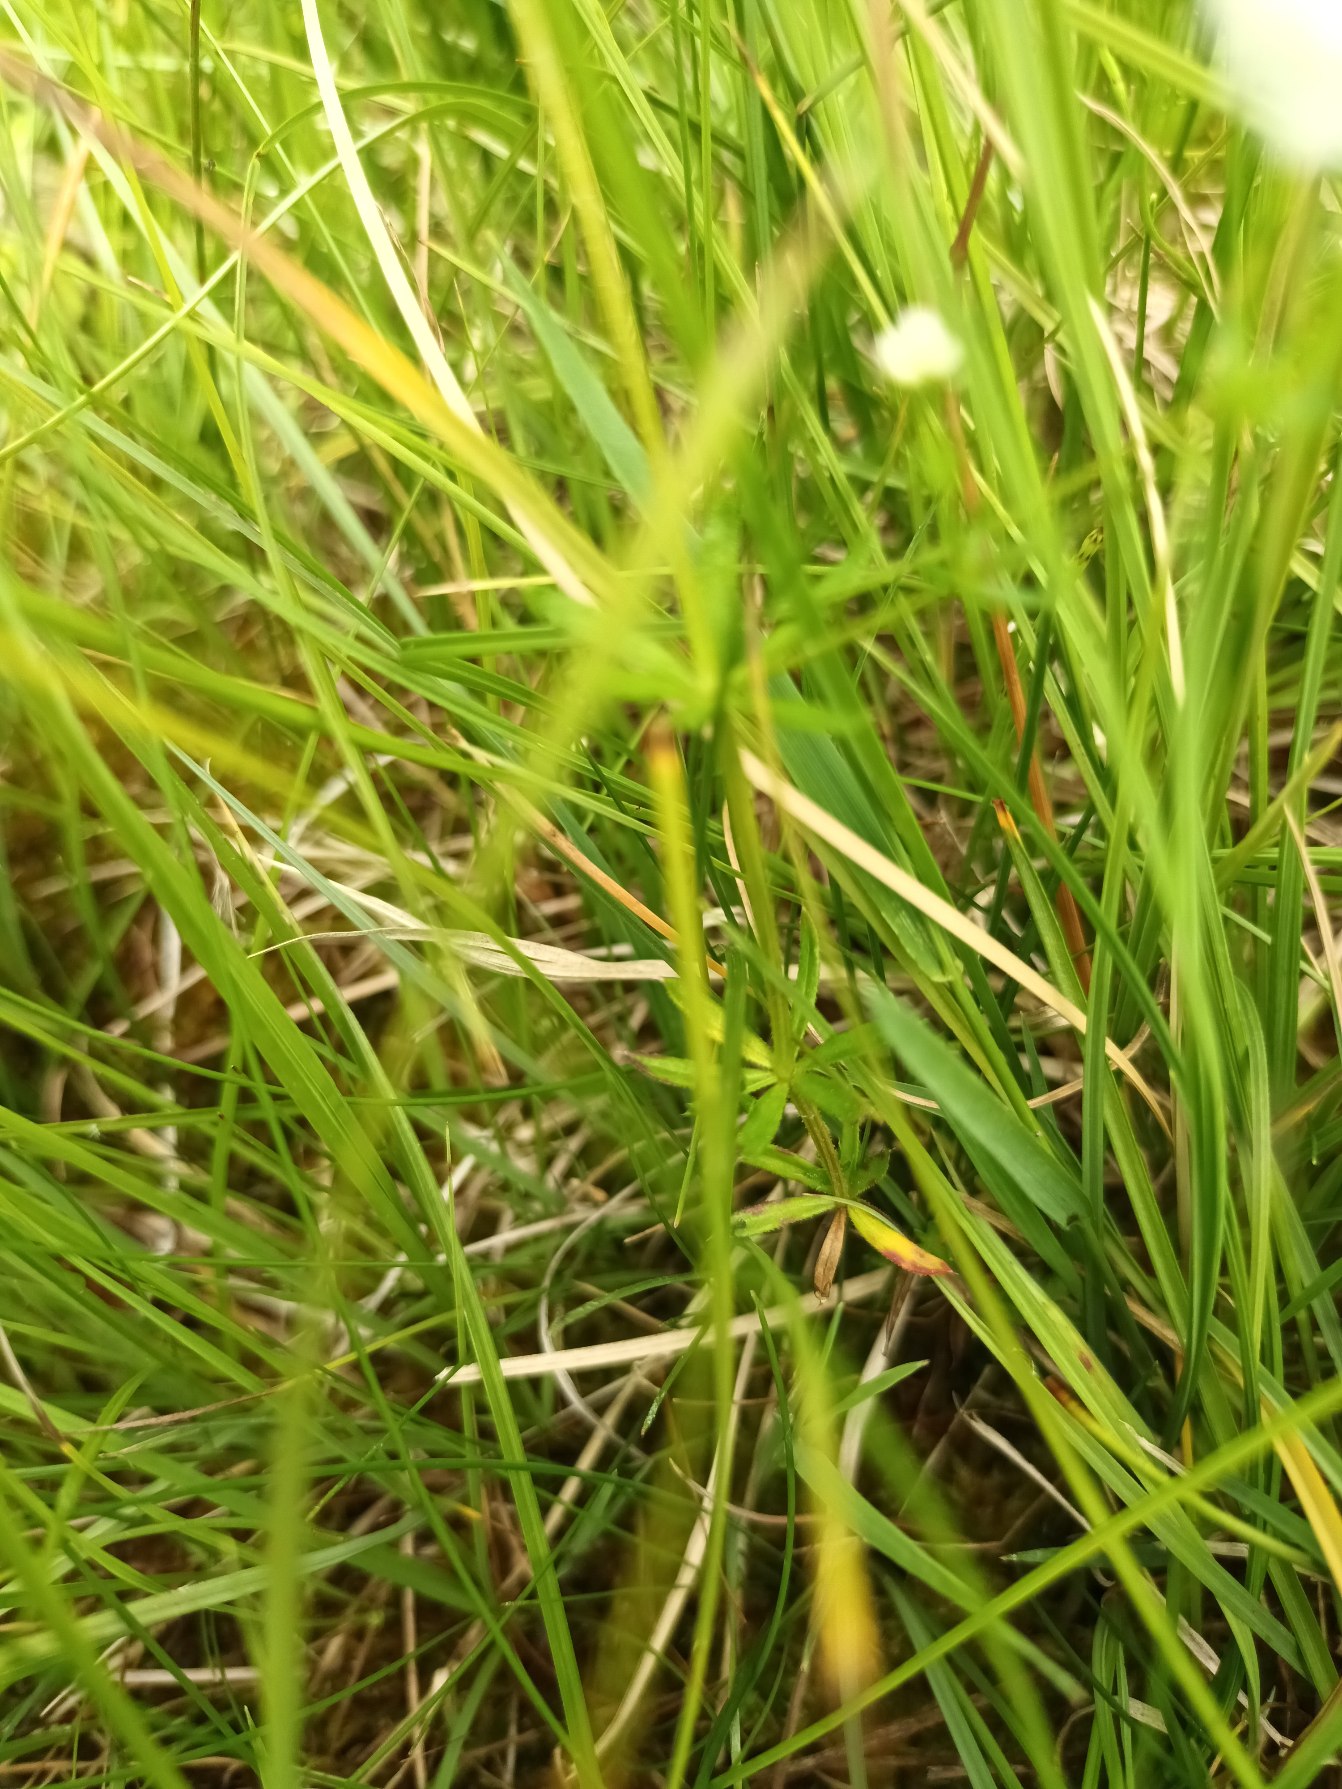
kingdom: Plantae
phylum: Tracheophyta
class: Magnoliopsida
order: Gentianales
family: Rubiaceae
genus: Galium
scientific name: Galium uliginosum
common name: Sump-snerre
